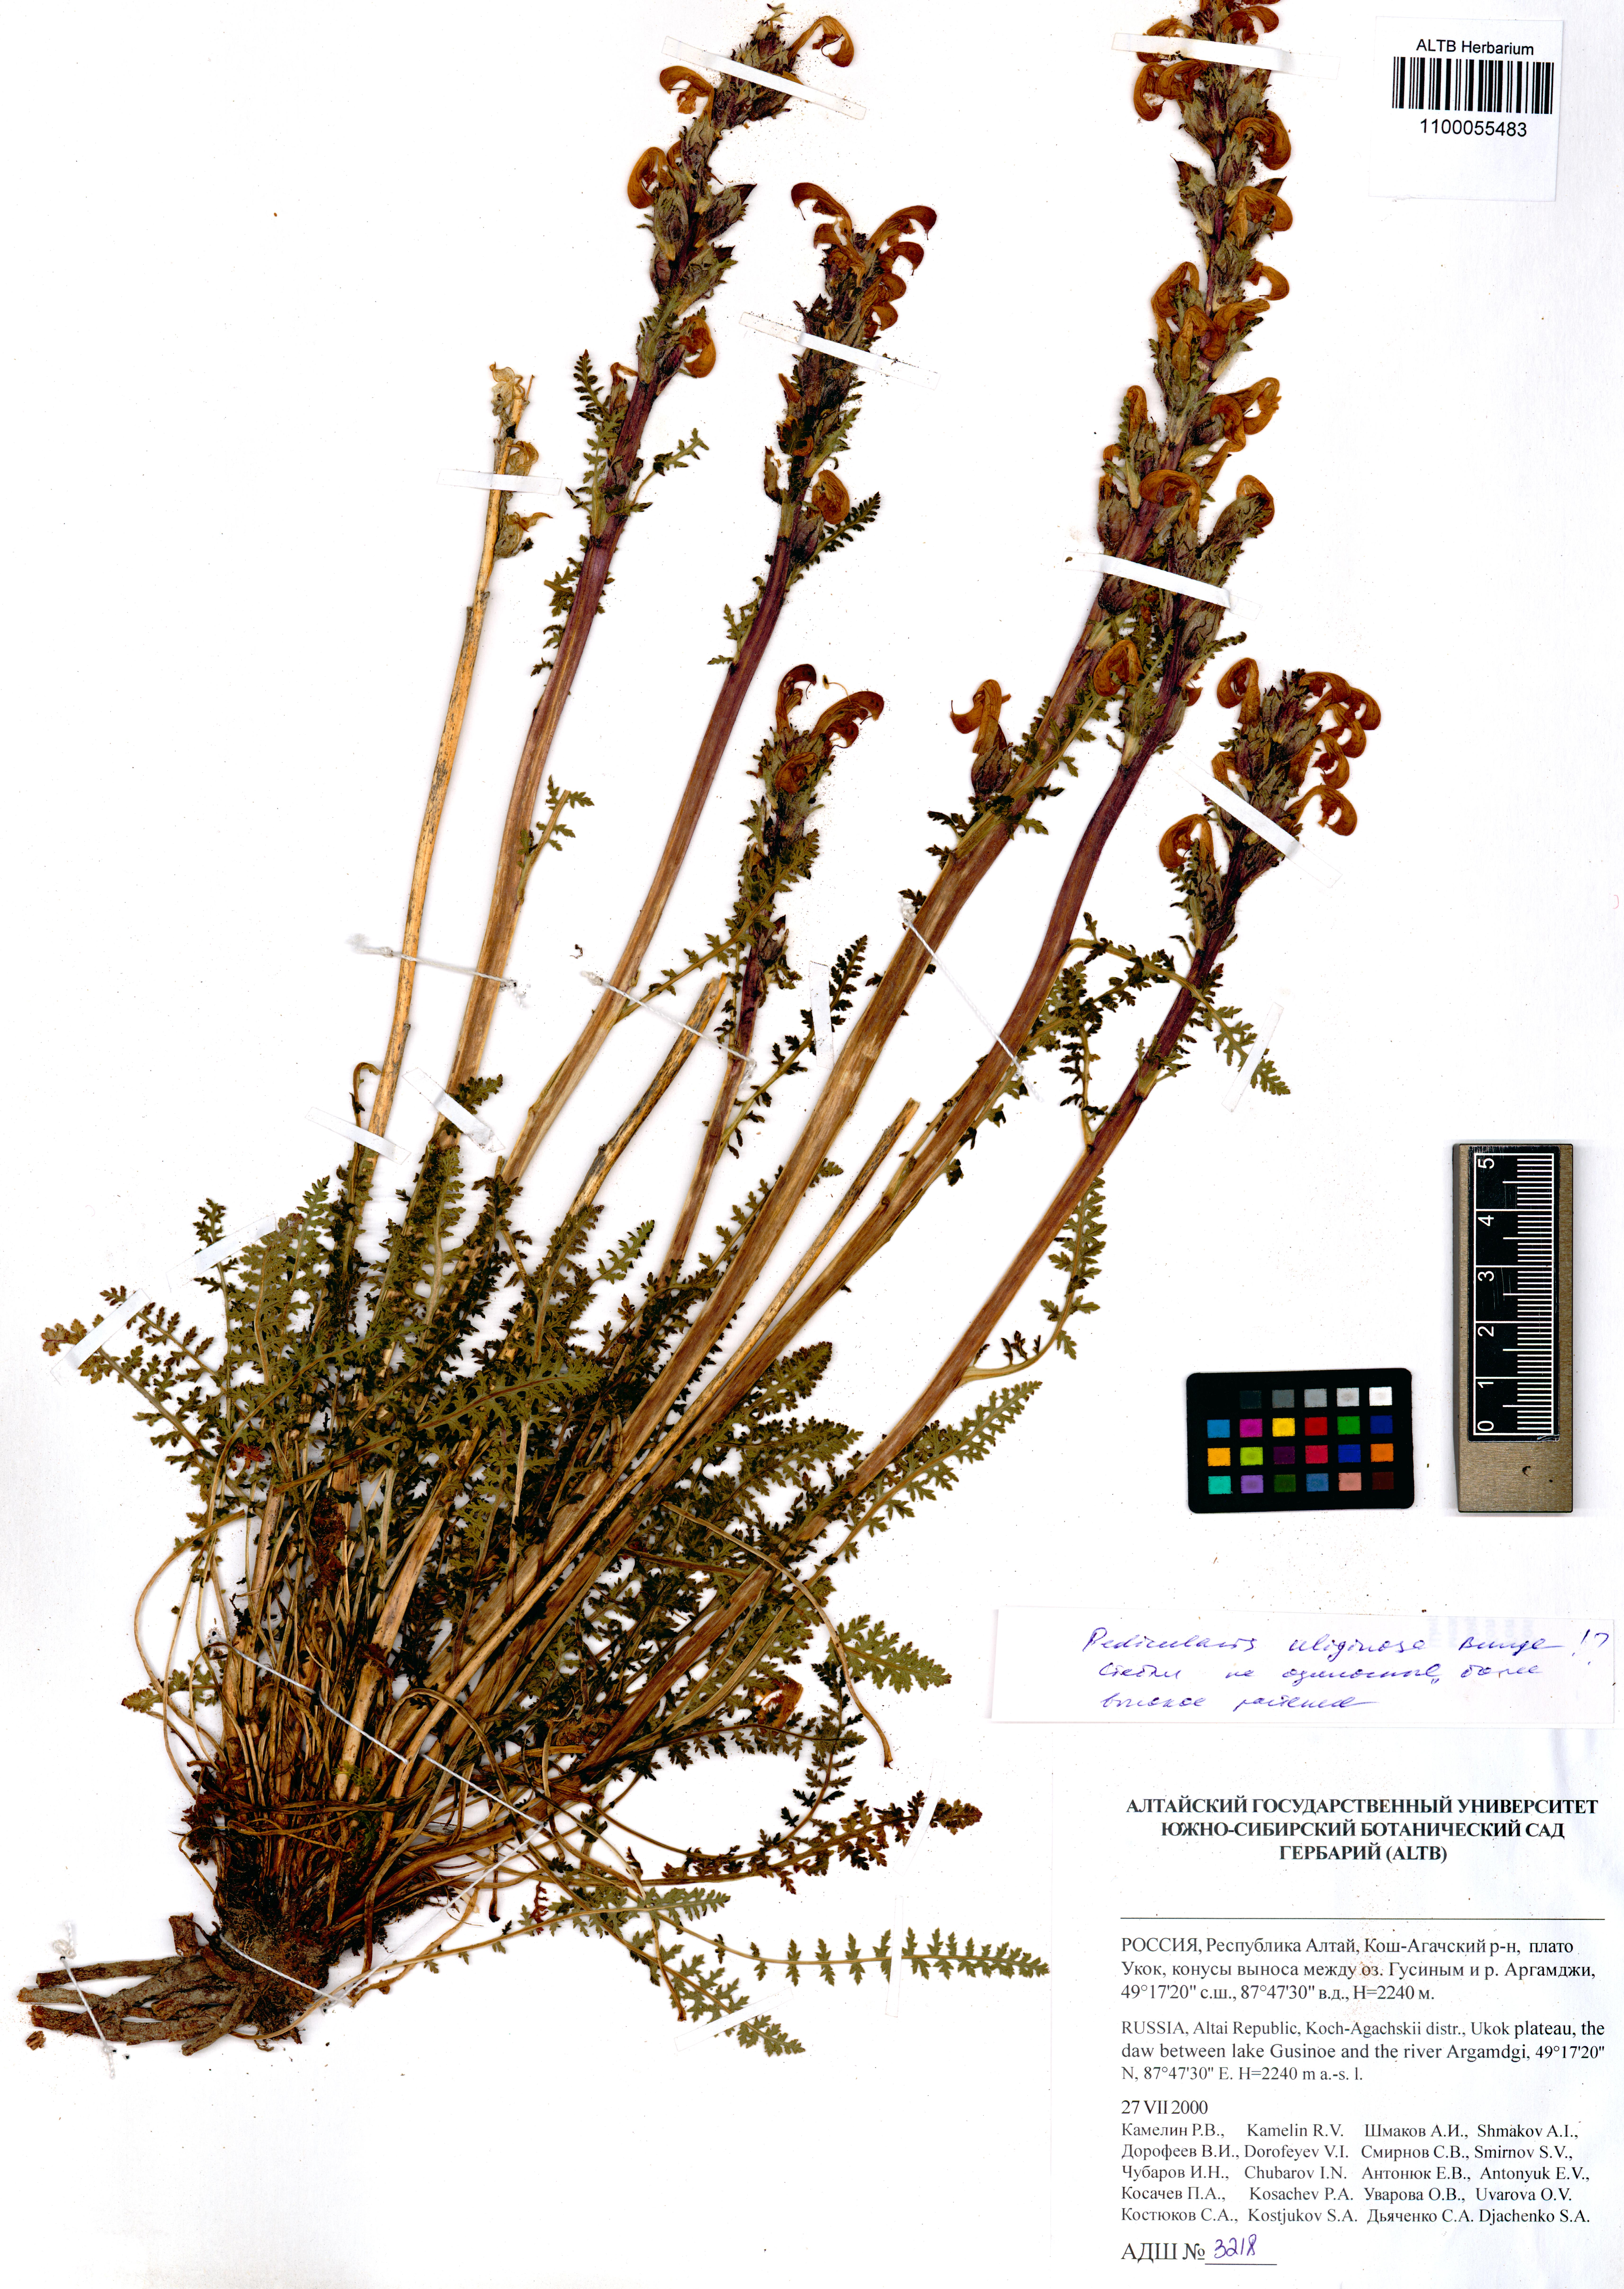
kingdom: Plantae
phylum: Tracheophyta
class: Magnoliopsida
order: Lamiales
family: Orobanchaceae
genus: Pedicularis
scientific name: Pedicularis uliginosa
